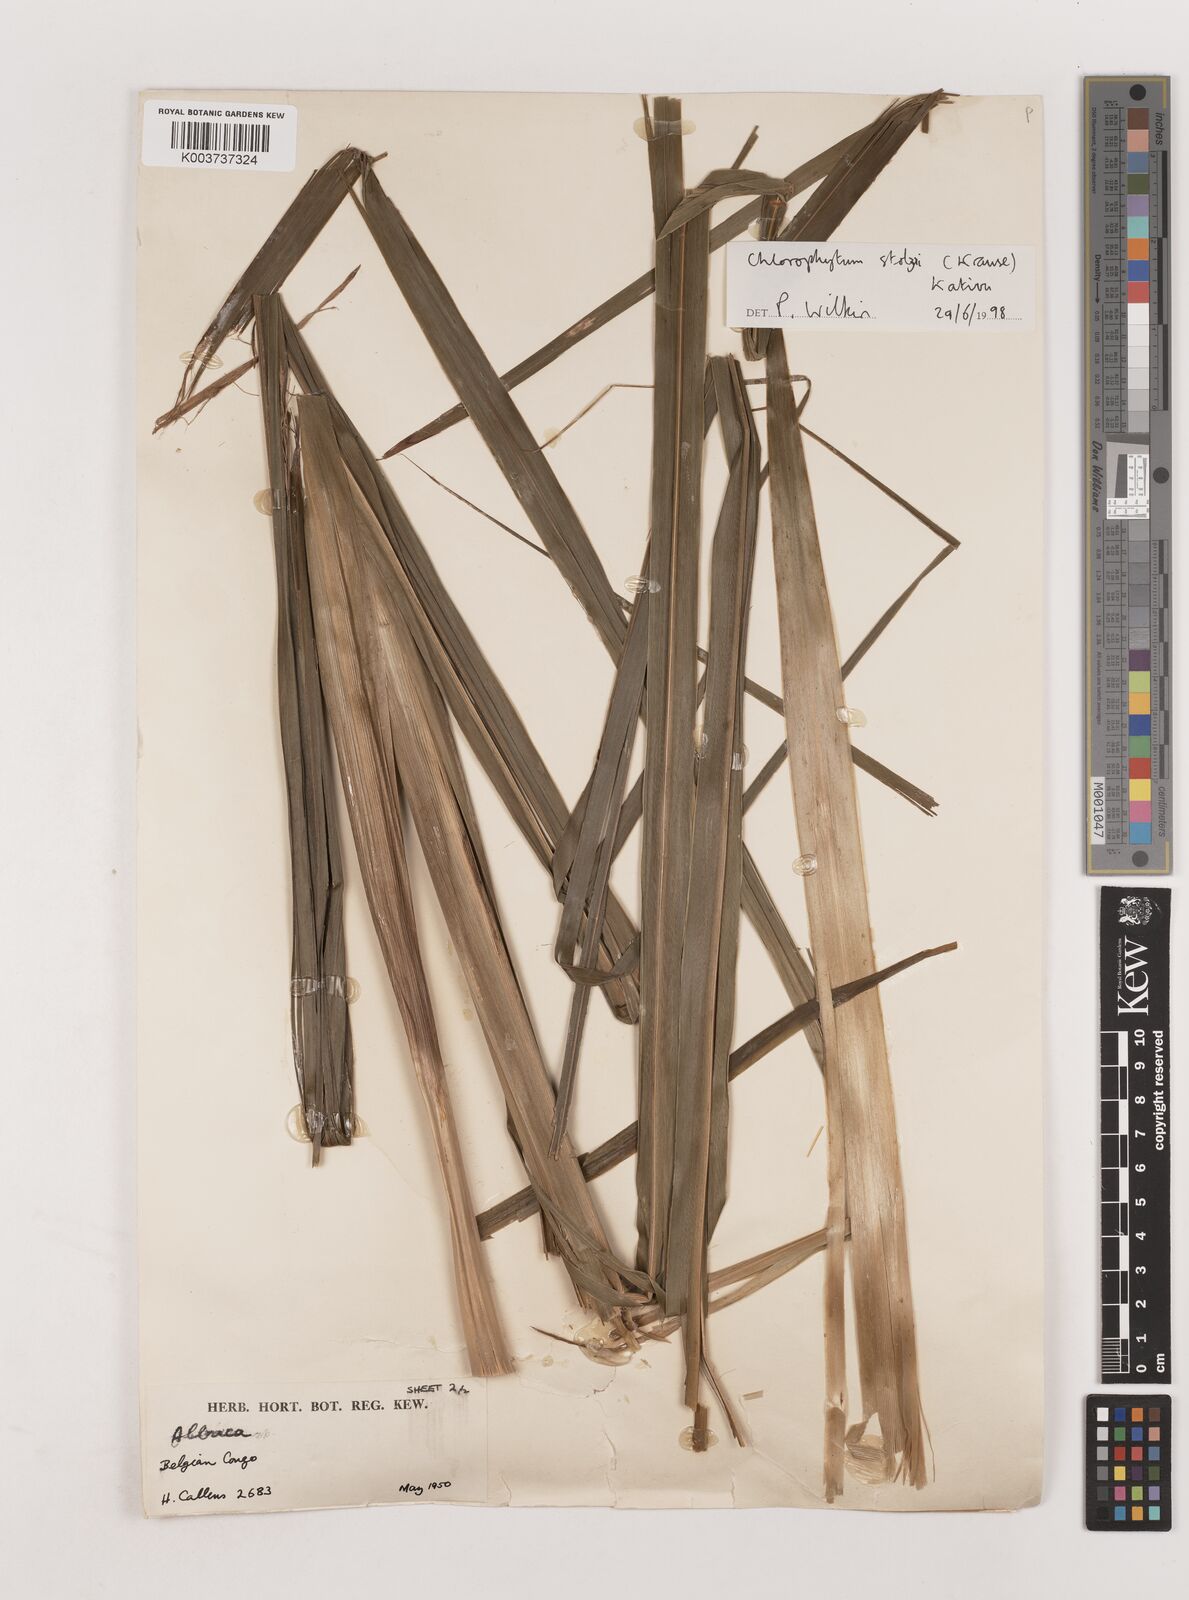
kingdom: Plantae
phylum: Tracheophyta
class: Liliopsida
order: Asparagales
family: Asparagaceae
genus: Chlorophytum
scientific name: Chlorophytum monophyllum
